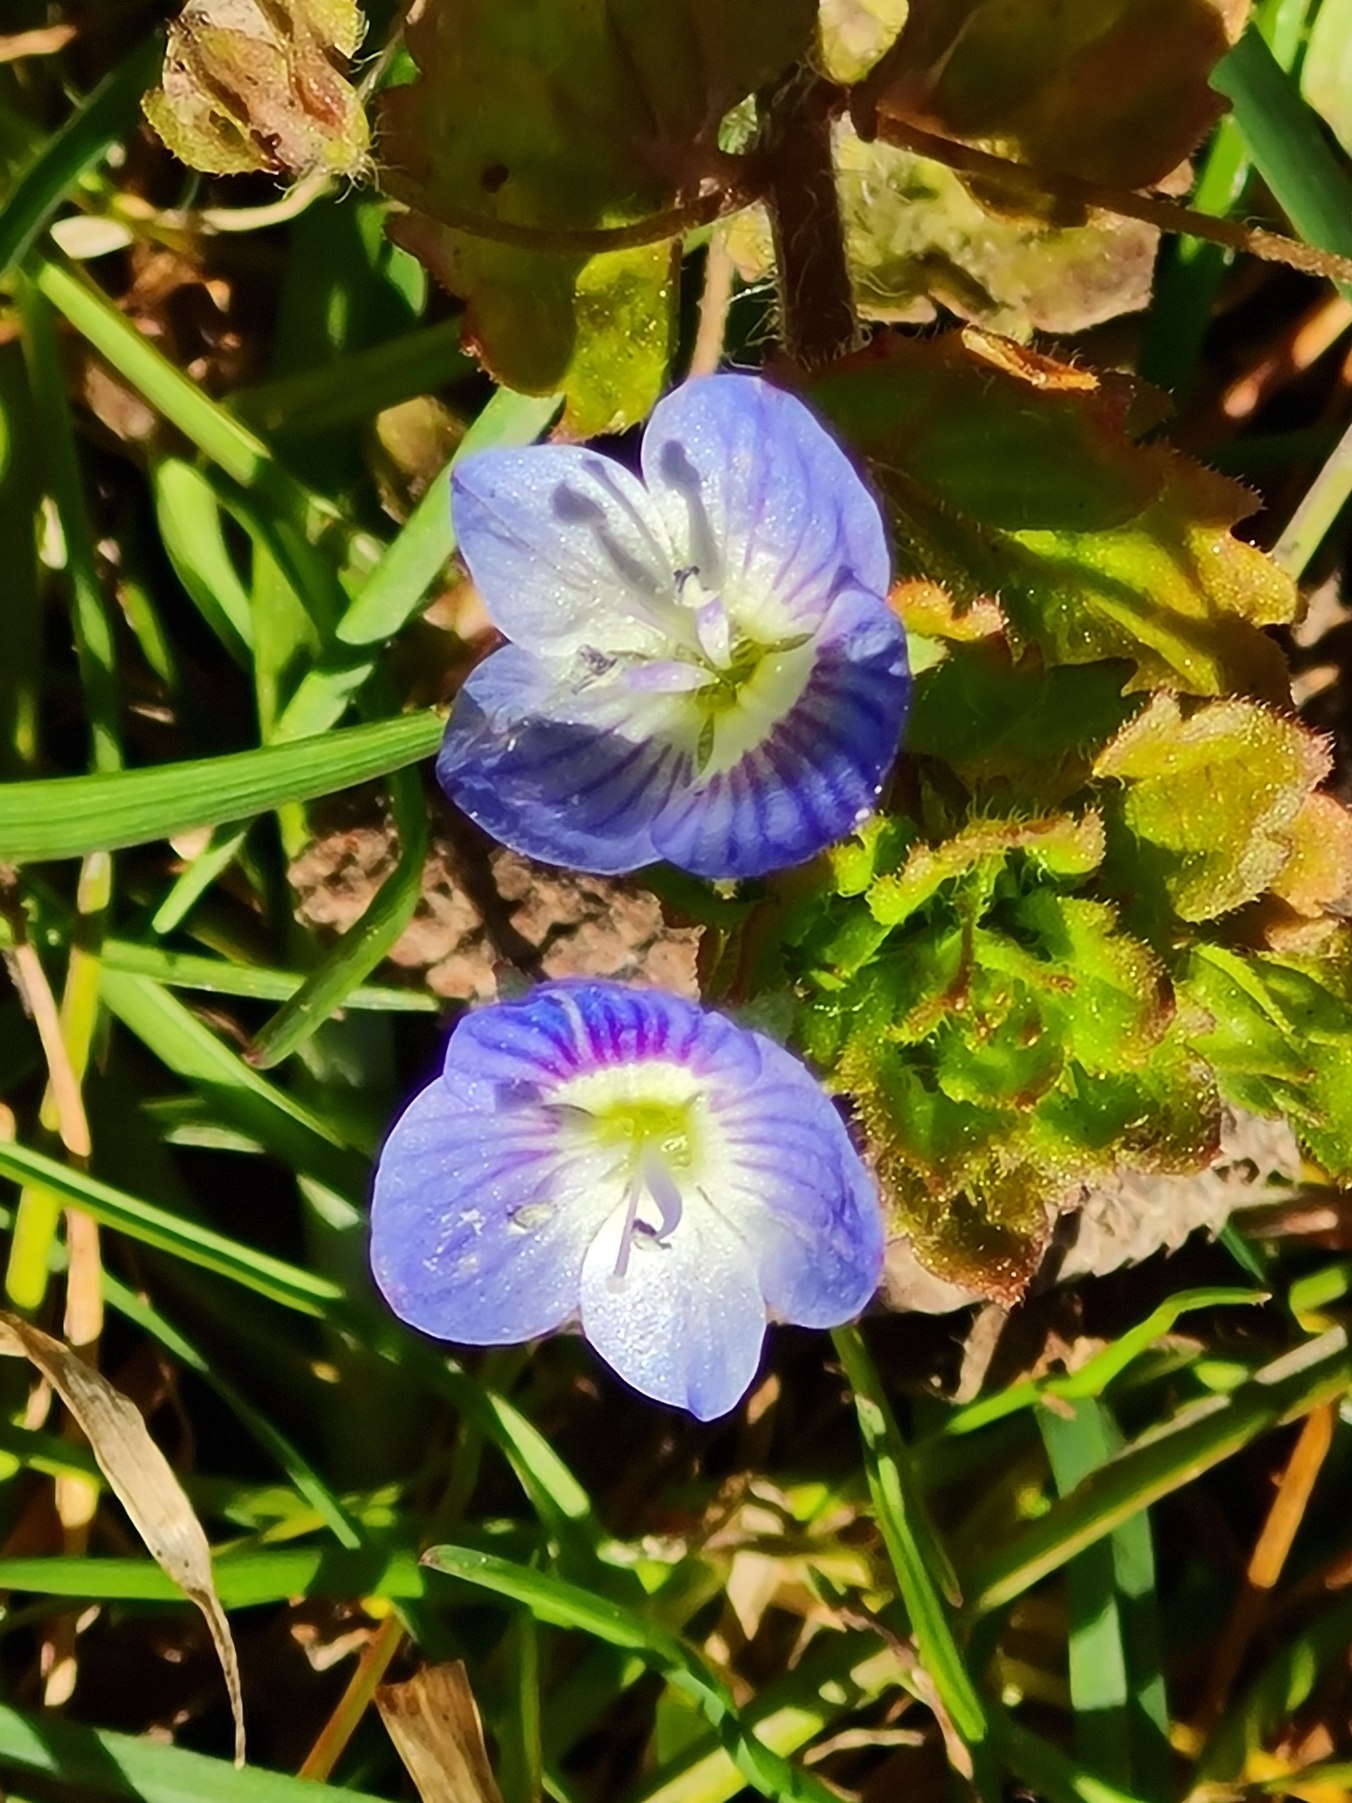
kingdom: Plantae
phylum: Tracheophyta
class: Magnoliopsida
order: Lamiales
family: Plantaginaceae
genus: Veronica
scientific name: Veronica persica
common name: Storkronet ærenpris
